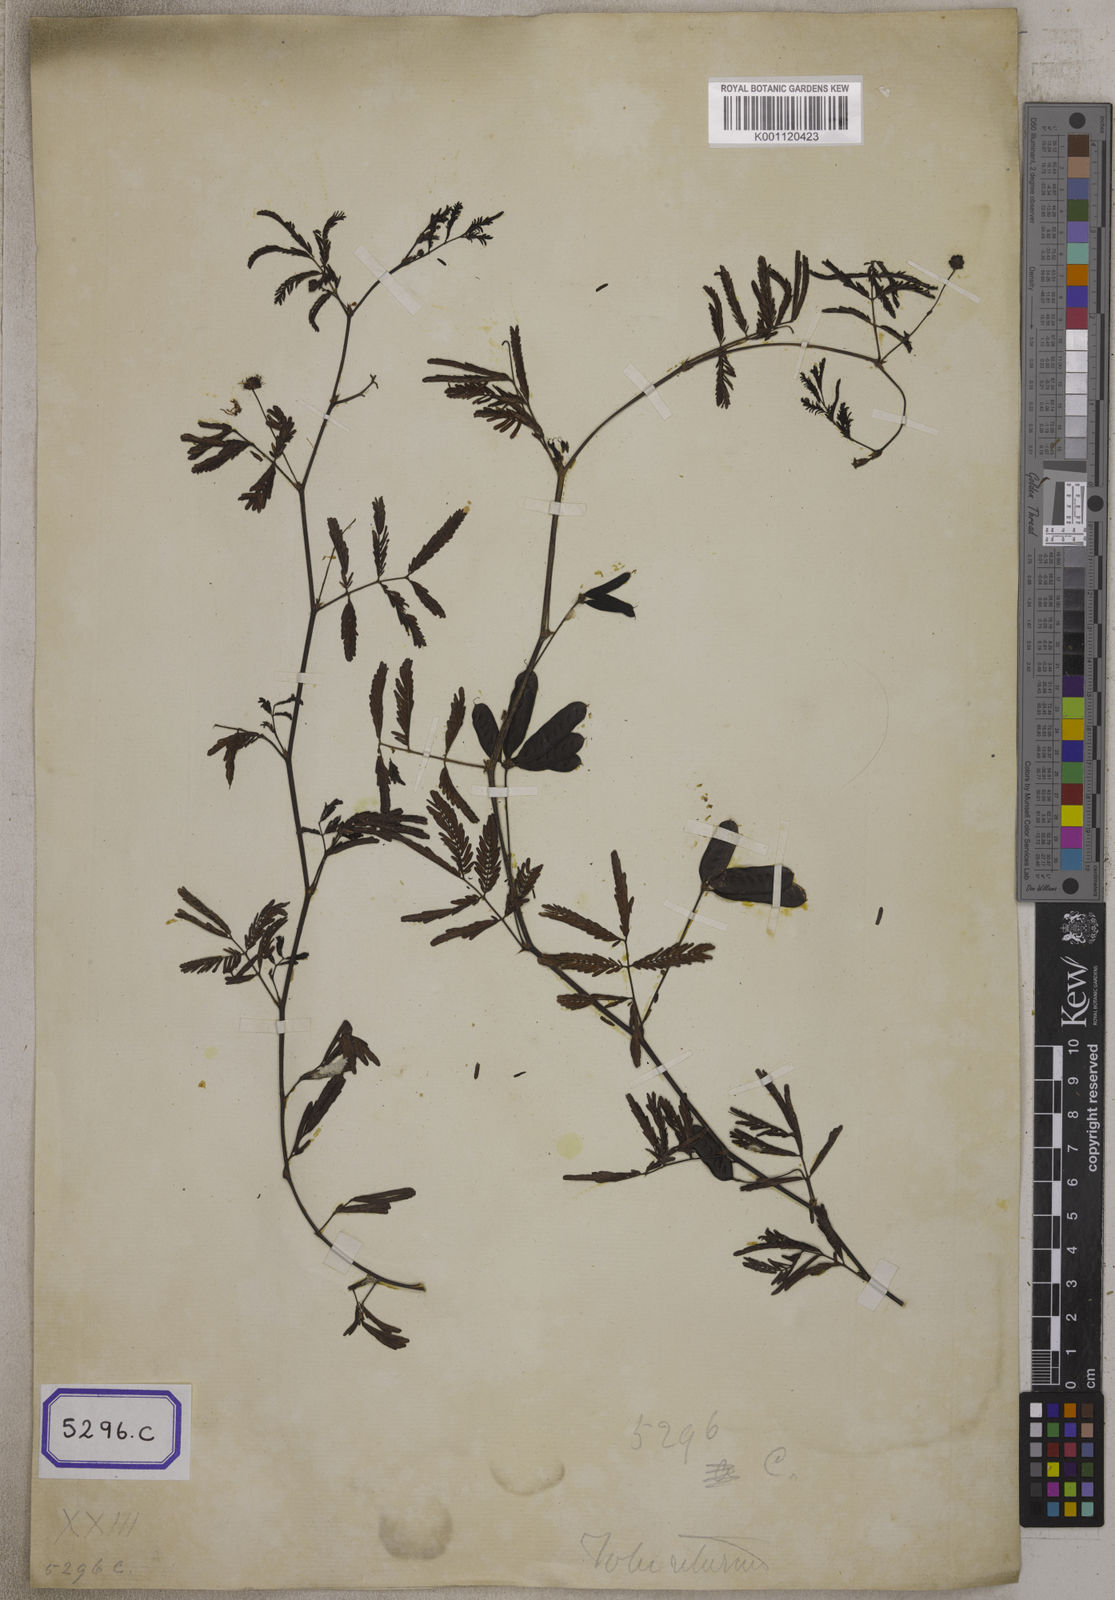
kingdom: Plantae
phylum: Tracheophyta
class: Magnoliopsida
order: Fabales
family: Fabaceae
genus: Neptunia
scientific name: Neptunia triquetra
